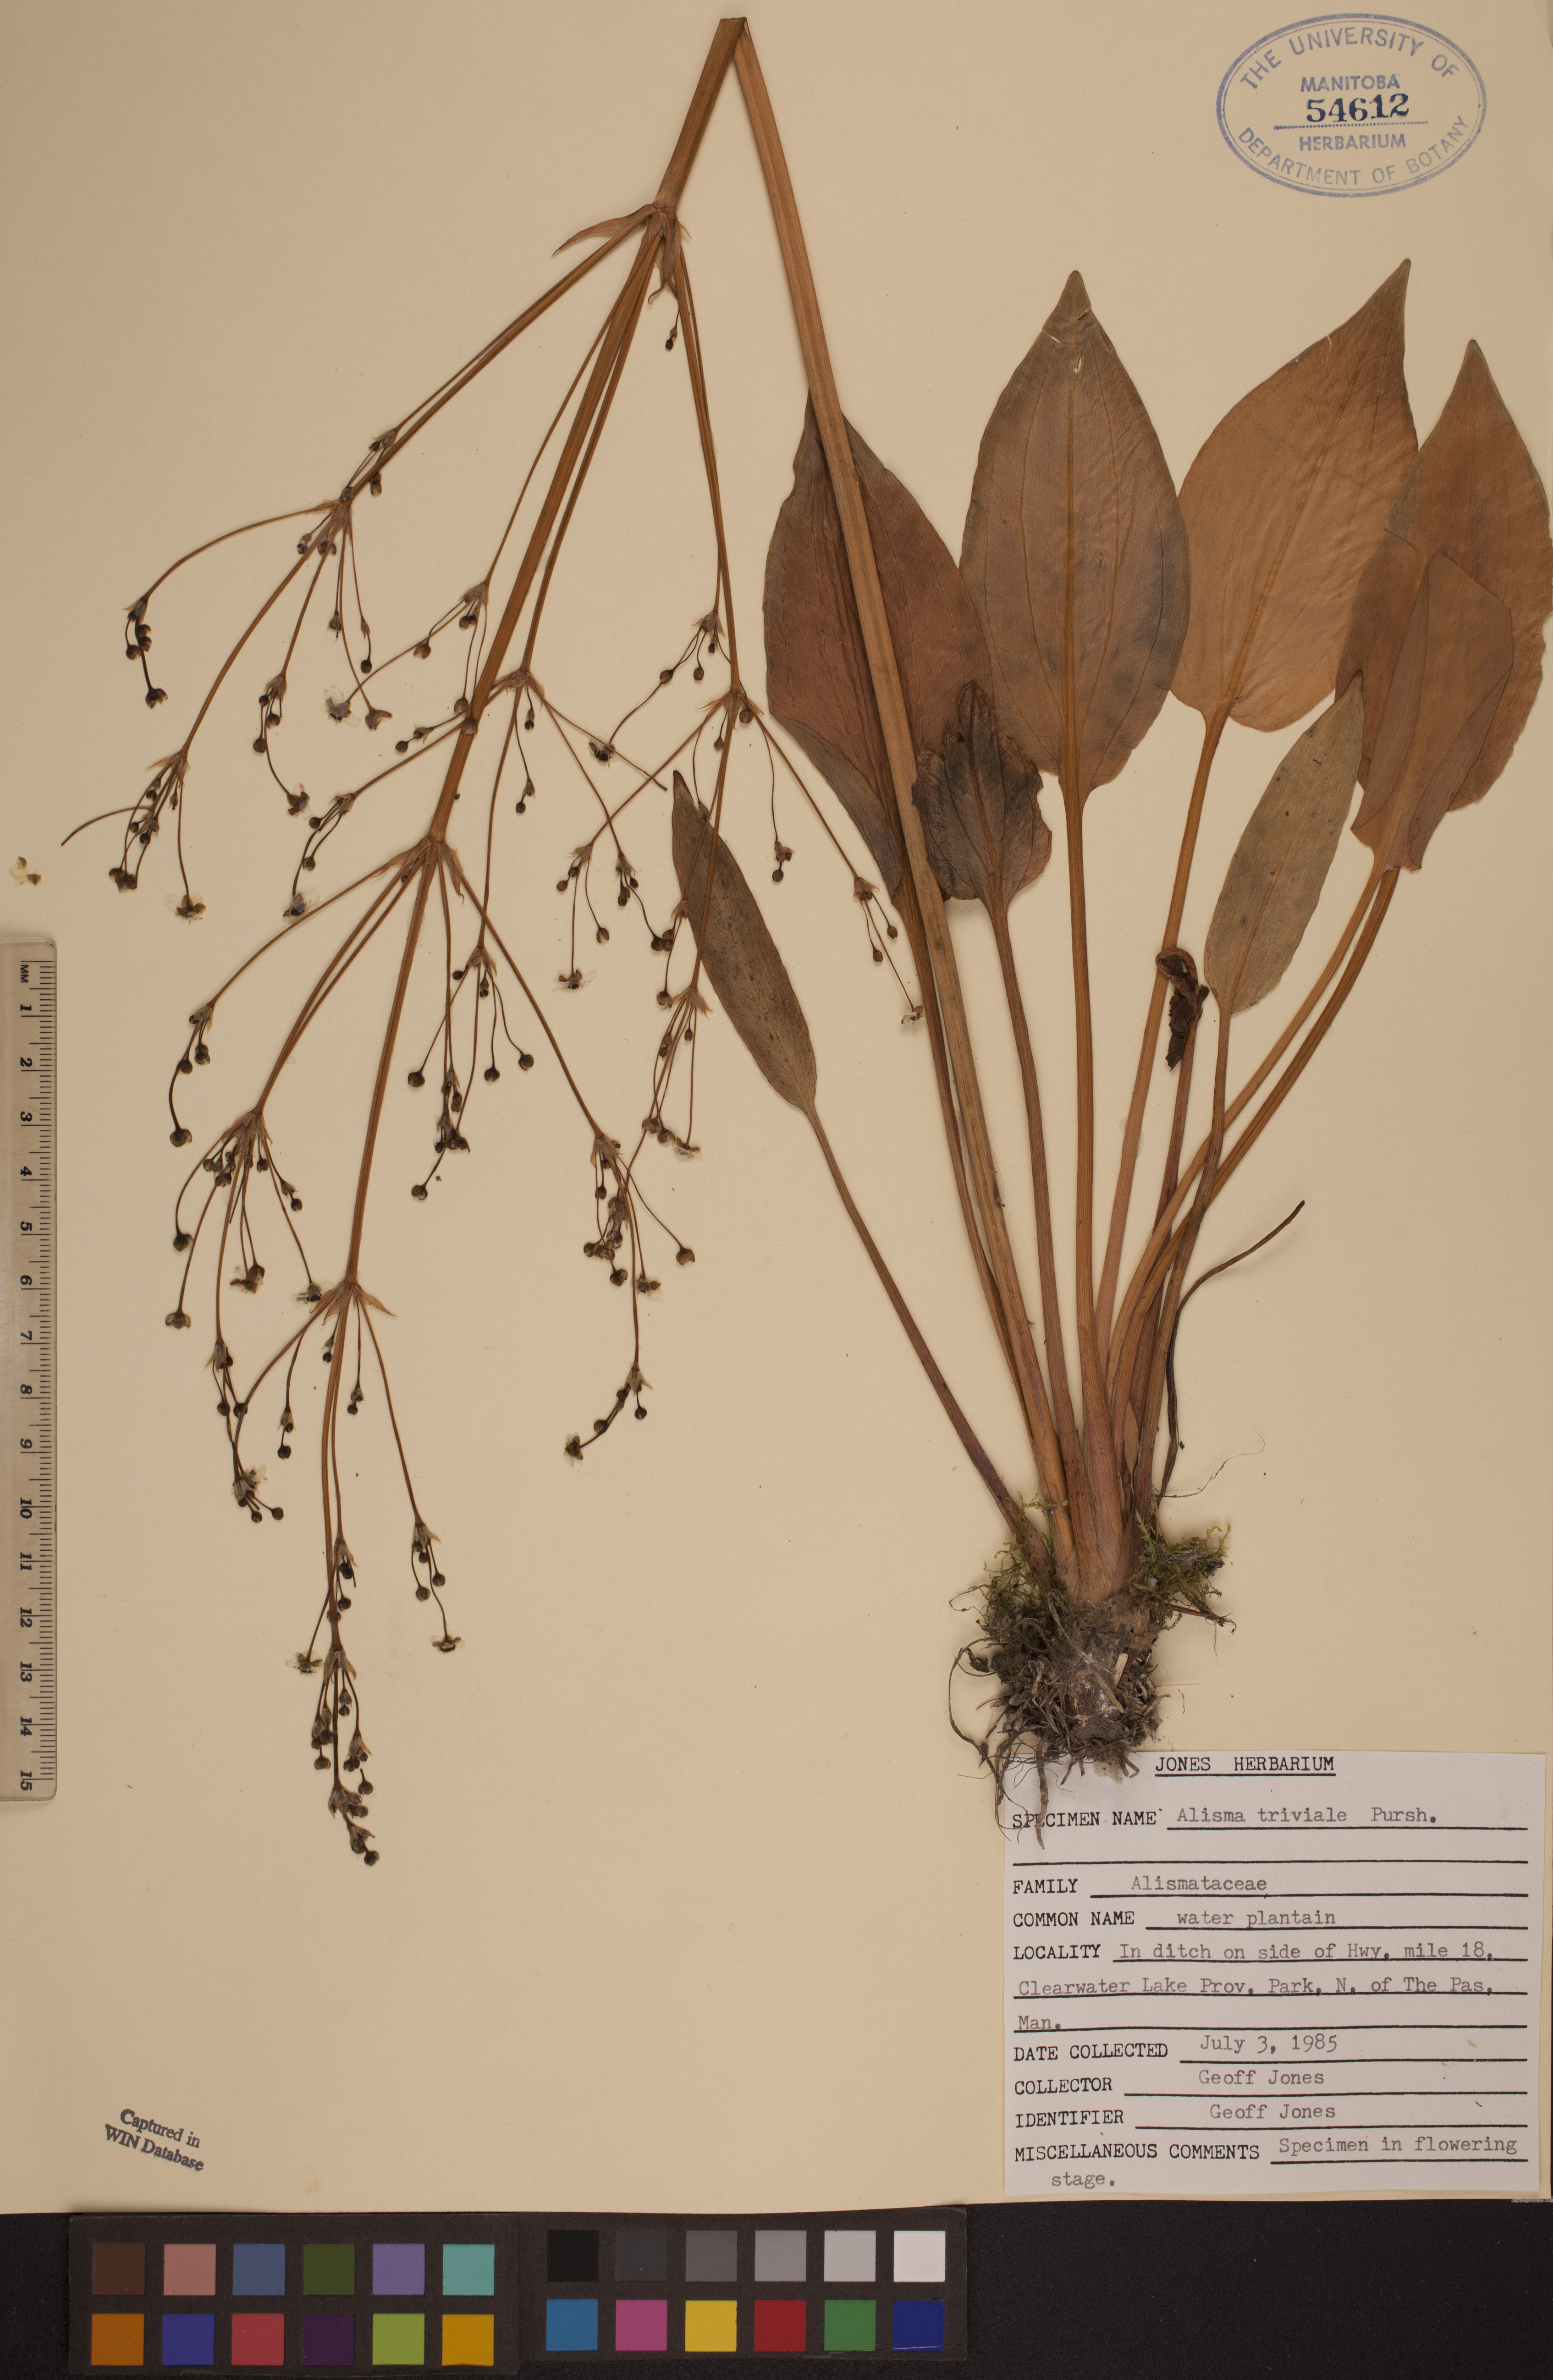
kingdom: Plantae
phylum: Tracheophyta
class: Liliopsida
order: Alismatales
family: Alismataceae
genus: Alisma
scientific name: Alisma triviale
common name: Northern water-plantain
